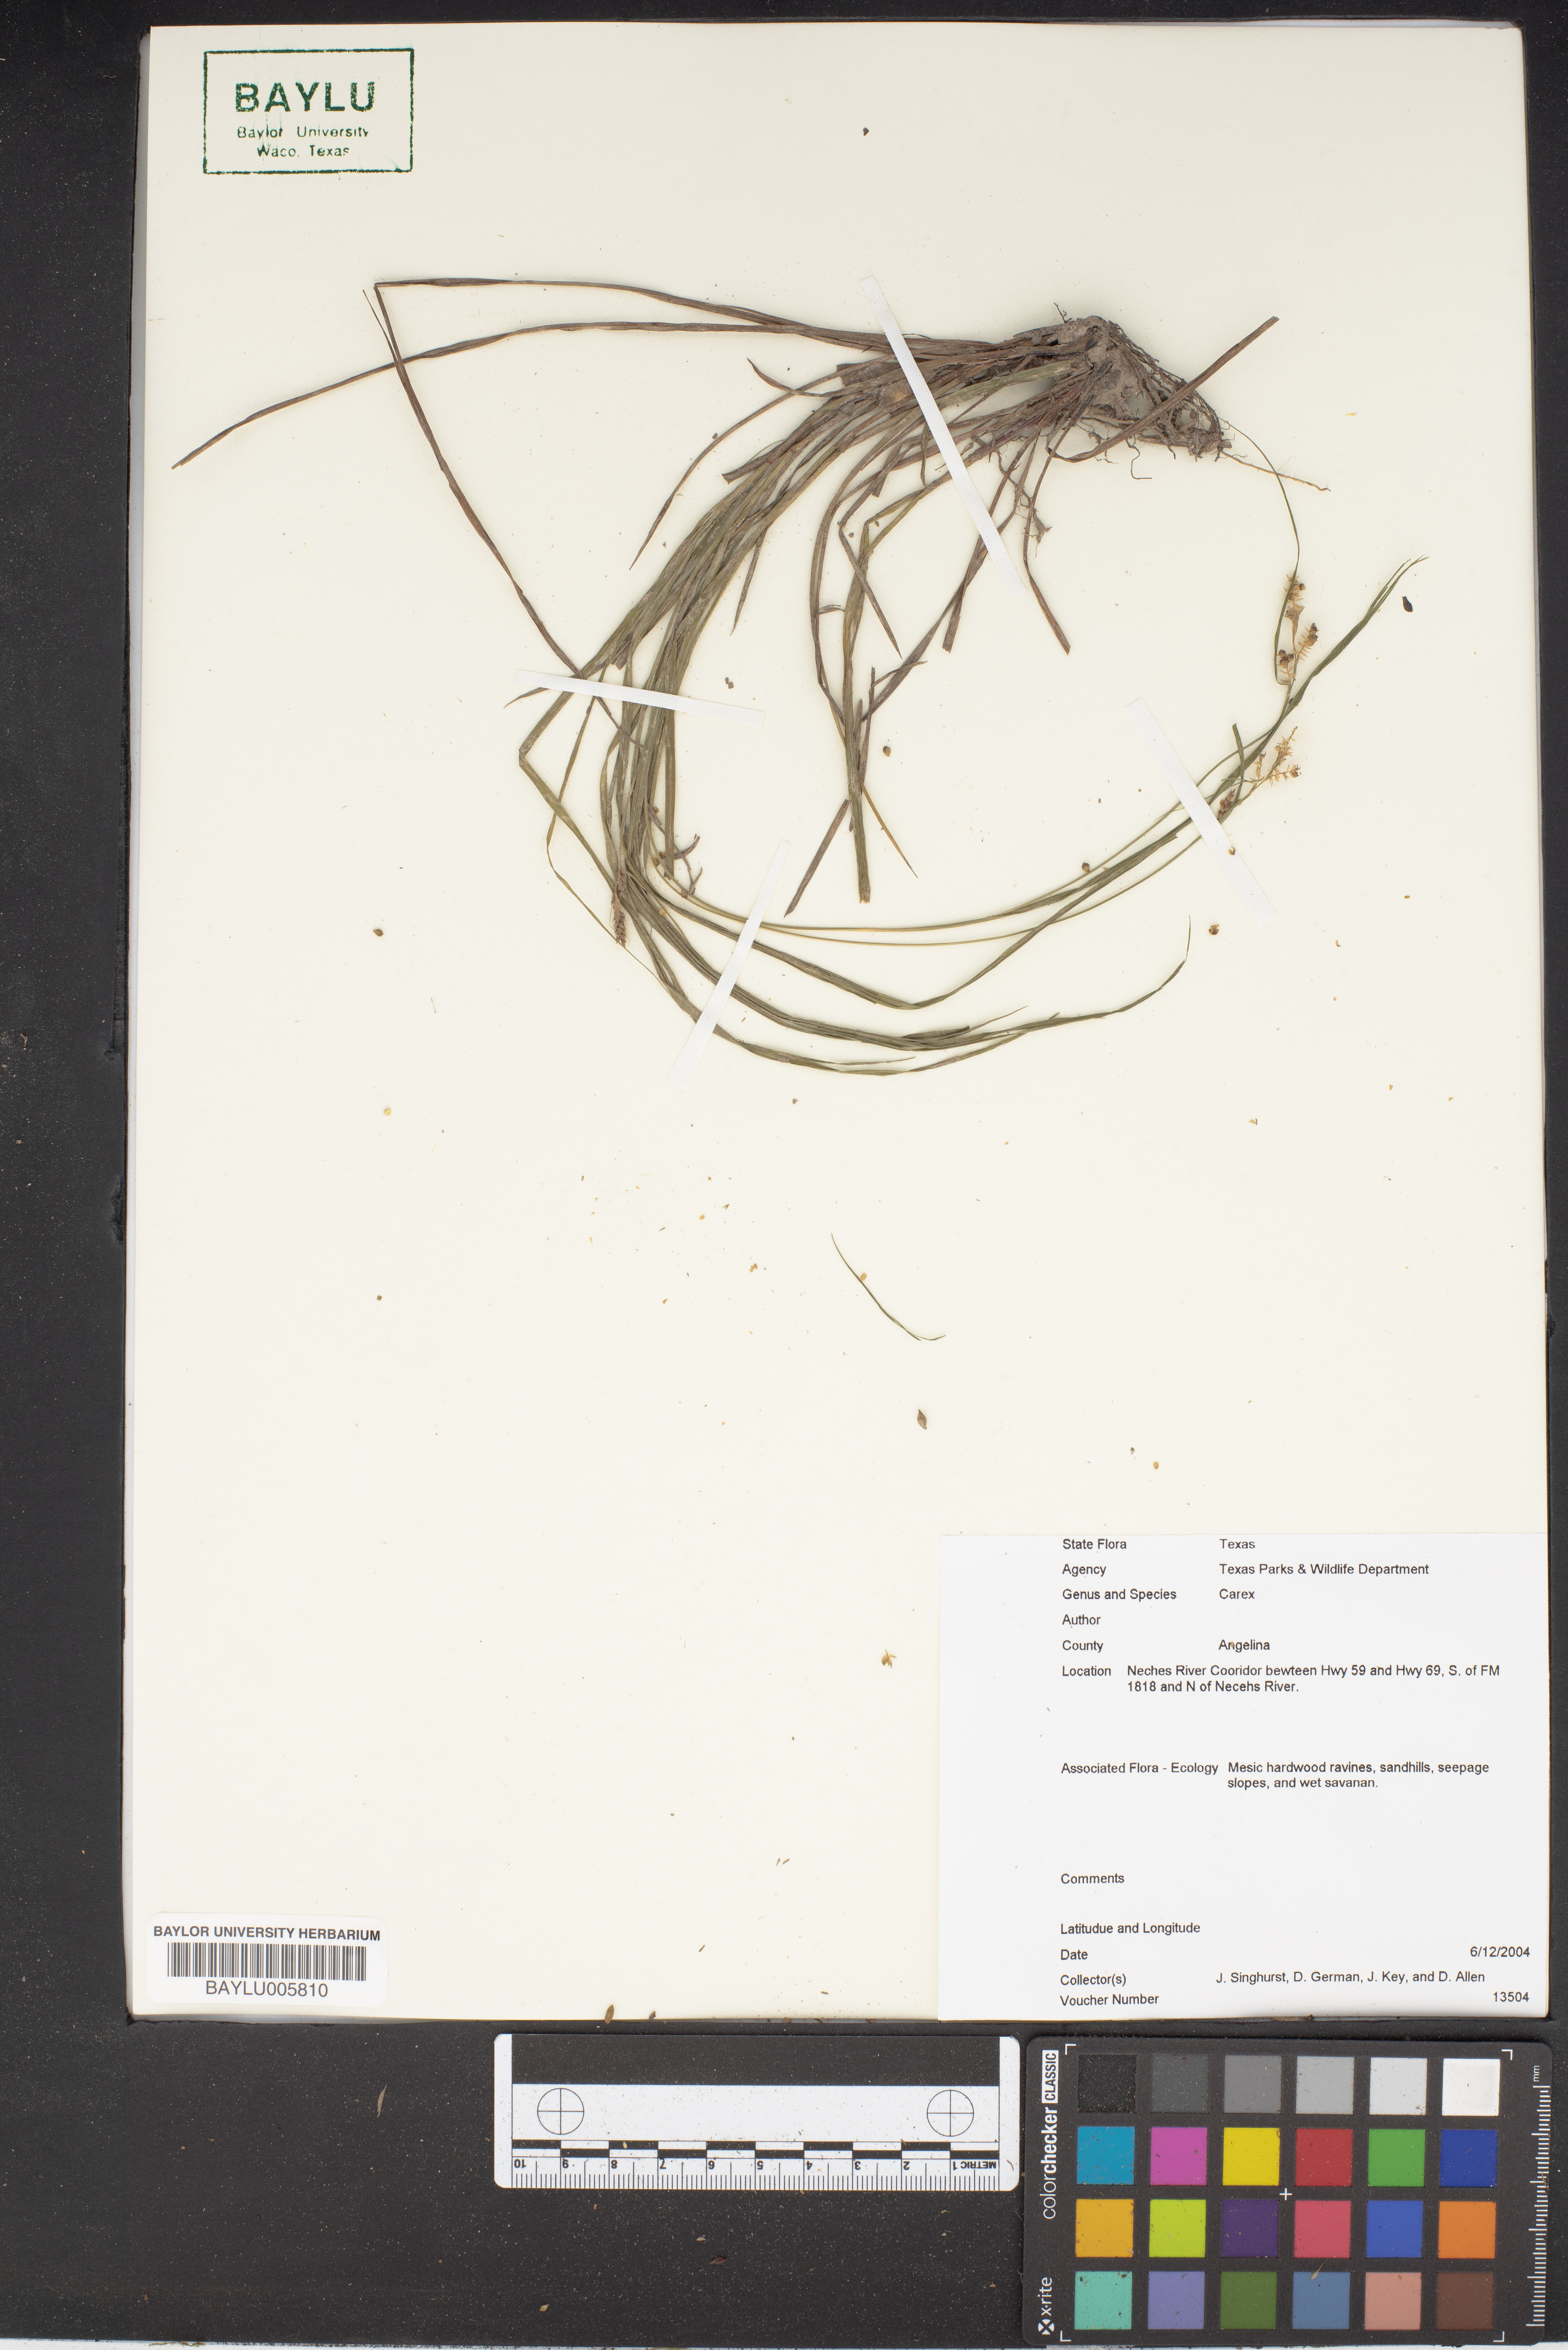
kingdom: Plantae
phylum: Tracheophyta
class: Liliopsida
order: Poales
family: Cyperaceae
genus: Carex
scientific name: Carex
